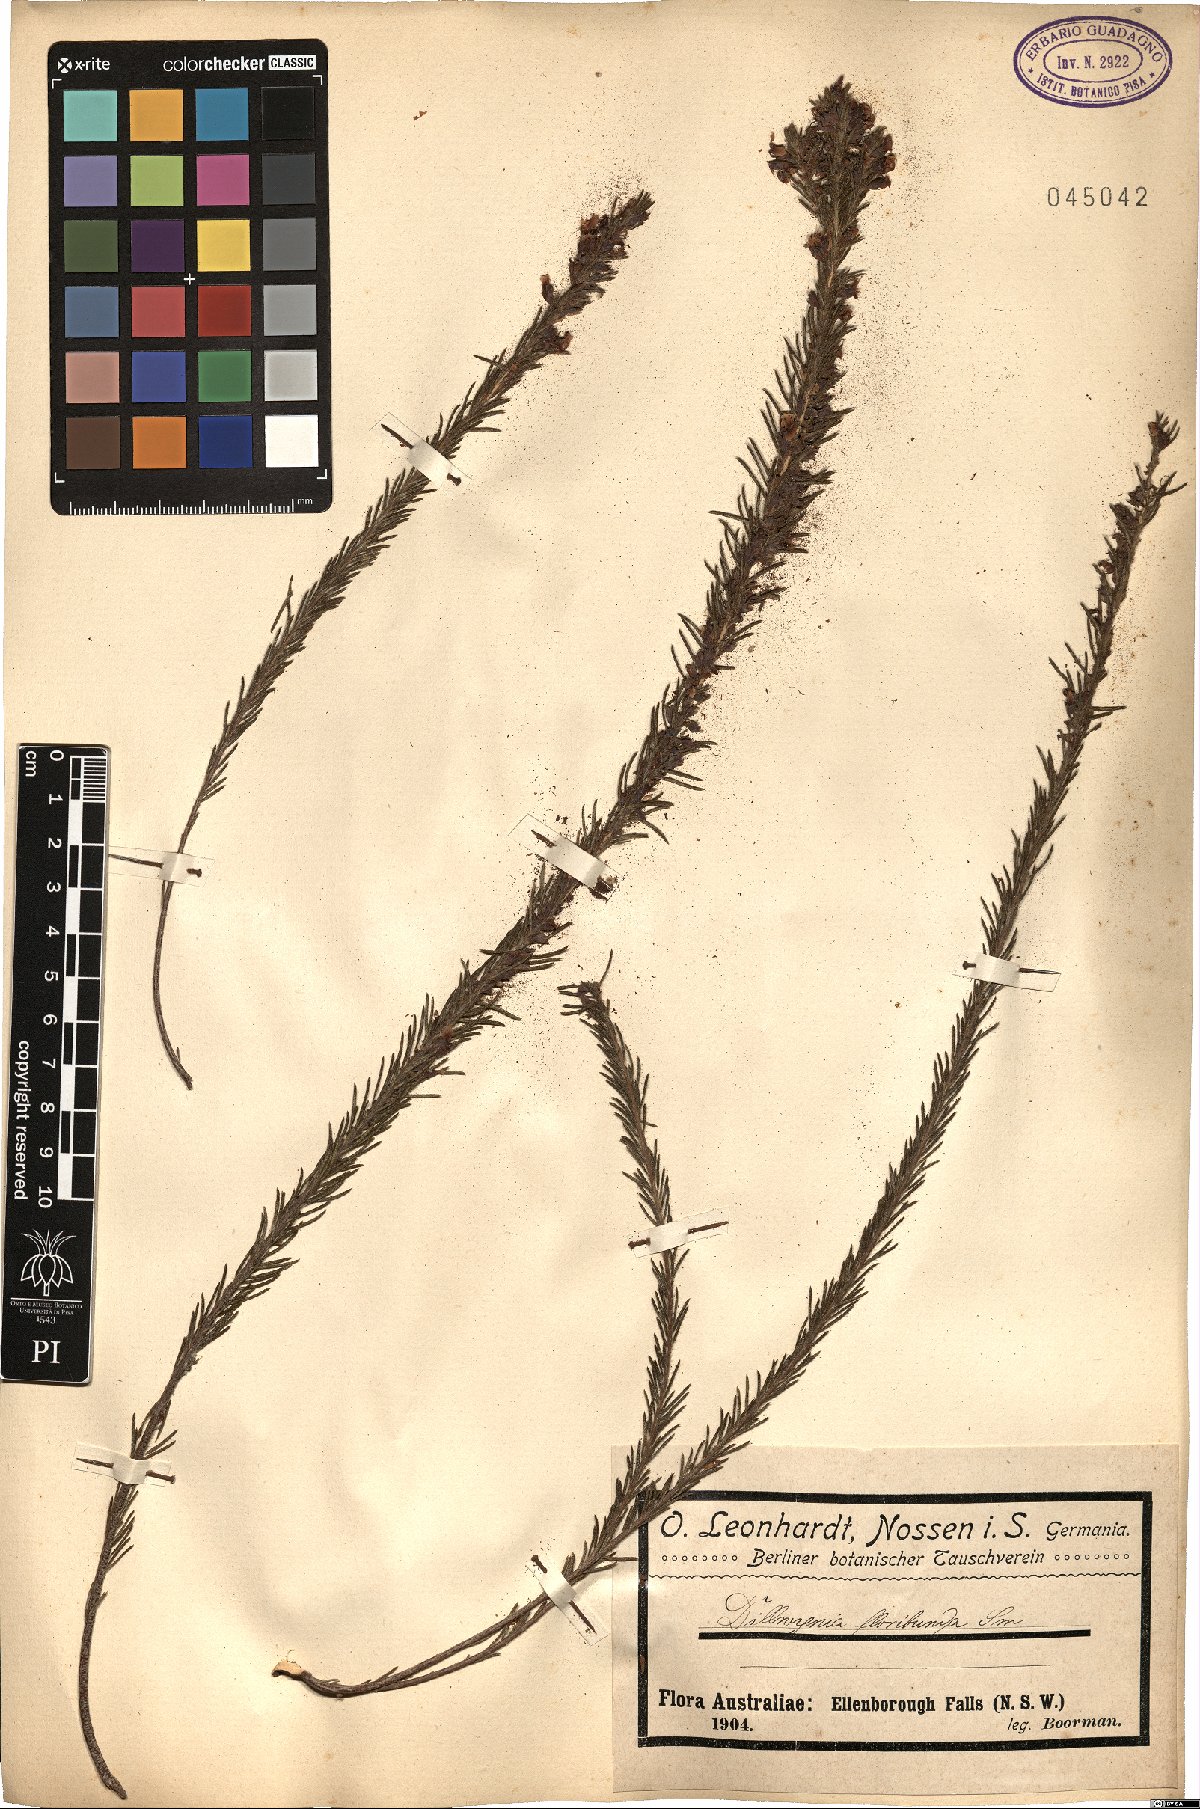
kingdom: Plantae
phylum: Tracheophyta
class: Magnoliopsida
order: Fabales
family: Fabaceae
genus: Dillwynia
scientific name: Dillwynia floribunda
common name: Eggs-and-bacon
